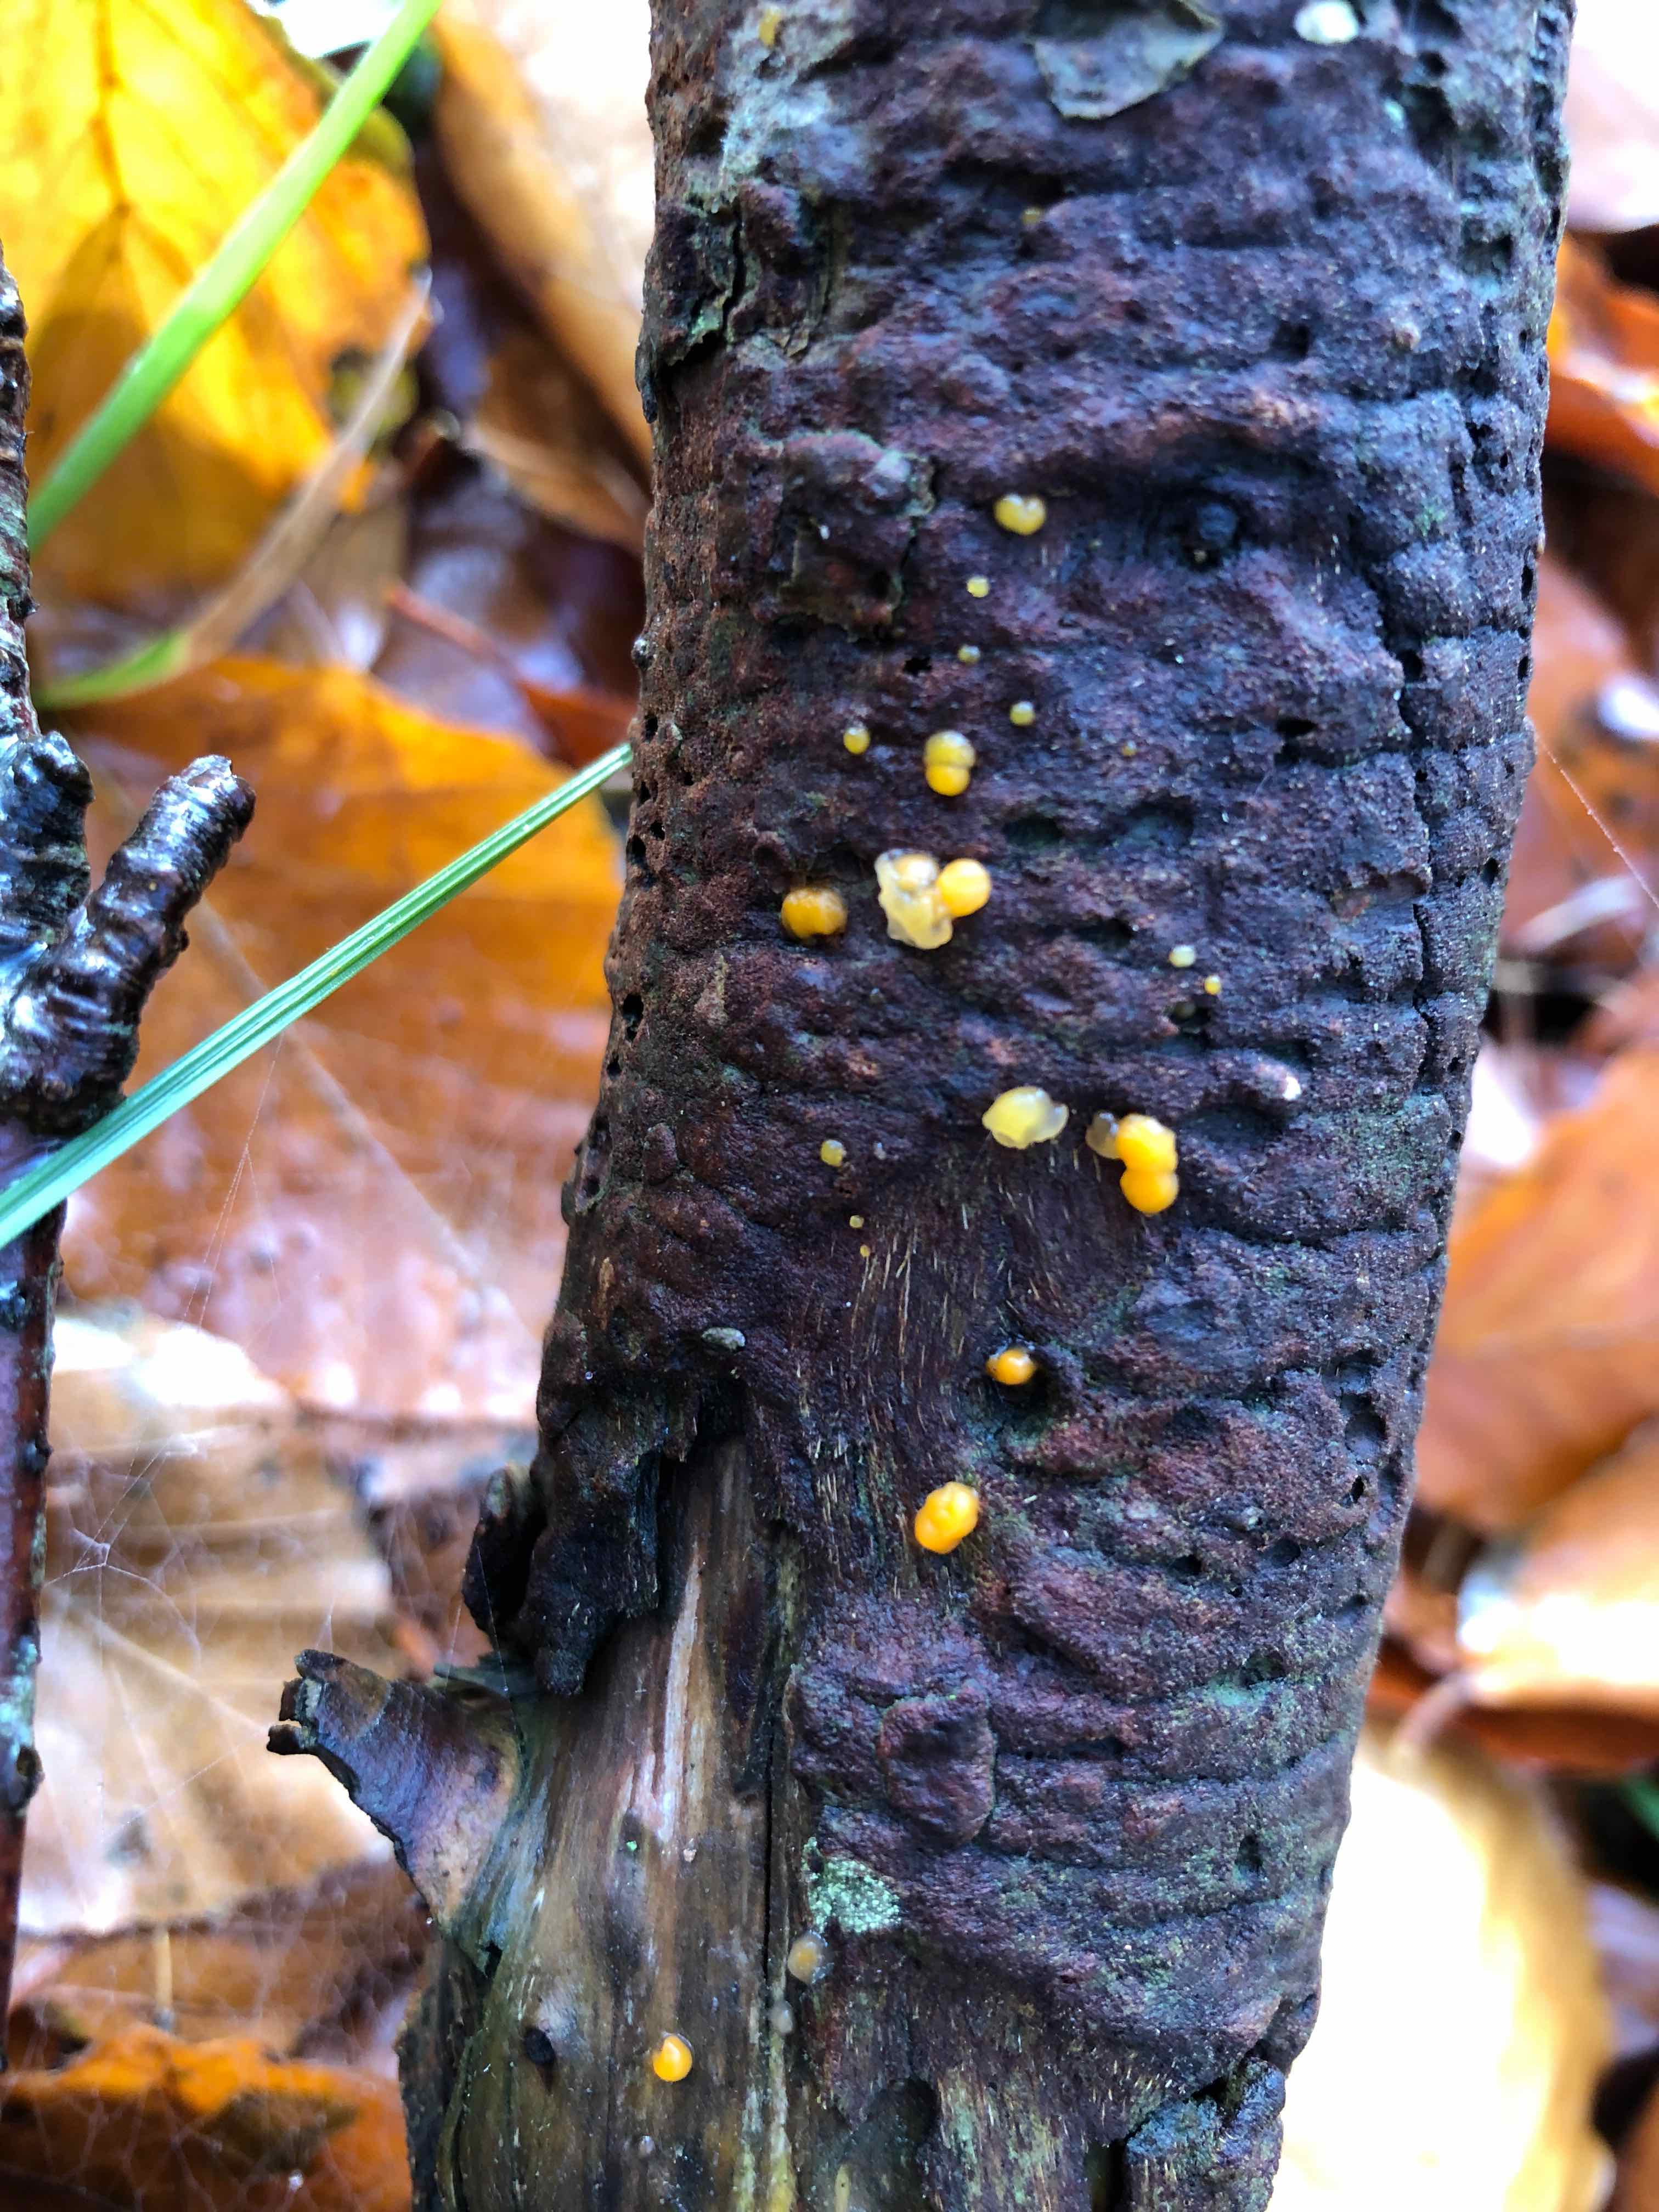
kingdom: Fungi
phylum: Basidiomycota
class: Dacrymycetes
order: Dacrymycetales
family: Dacrymycetaceae
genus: Dacrymyces
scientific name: Dacrymyces stillatus
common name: almindelig tåresvamp
